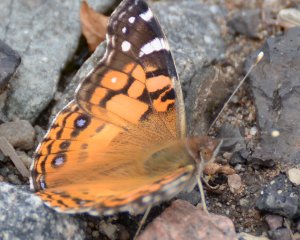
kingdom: Animalia
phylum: Arthropoda
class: Insecta
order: Lepidoptera
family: Nymphalidae
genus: Vanessa
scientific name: Vanessa virginiensis
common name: American Lady
